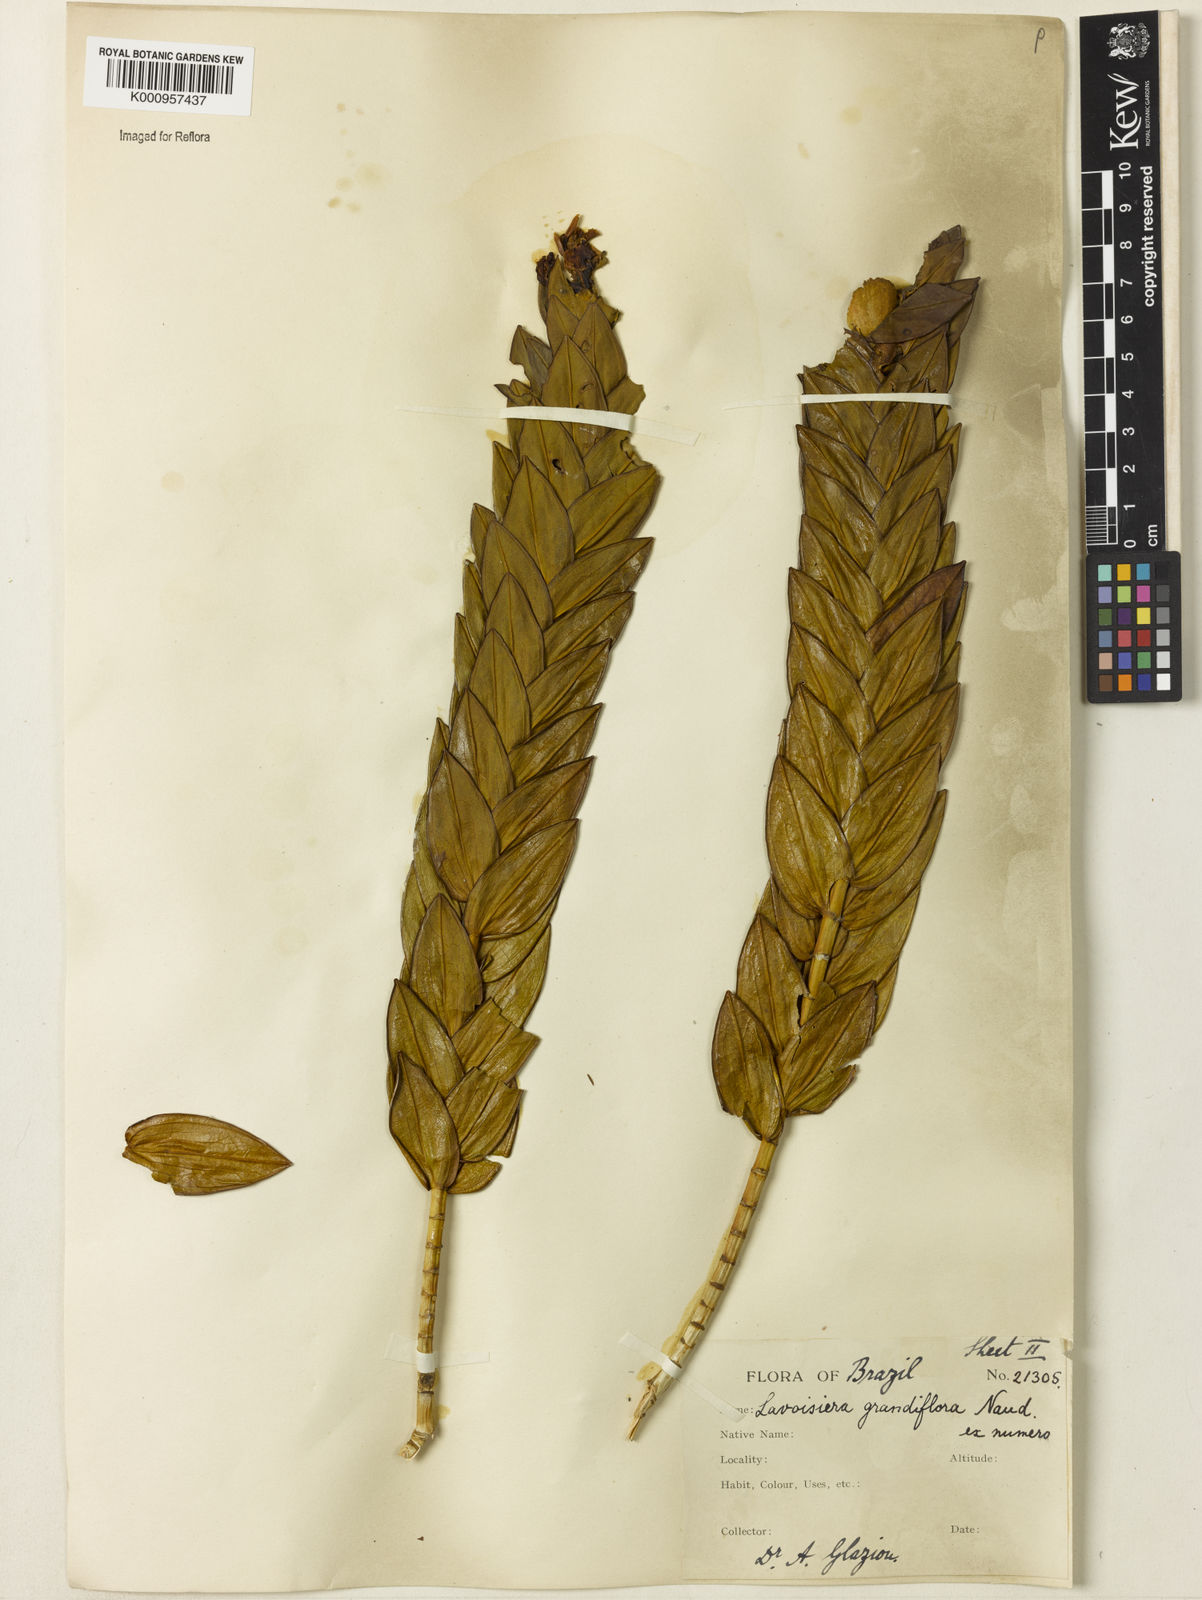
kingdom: Plantae
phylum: Tracheophyta
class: Magnoliopsida
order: Myrtales
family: Melastomataceae
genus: Microlicia
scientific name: Microlicia macrantha
